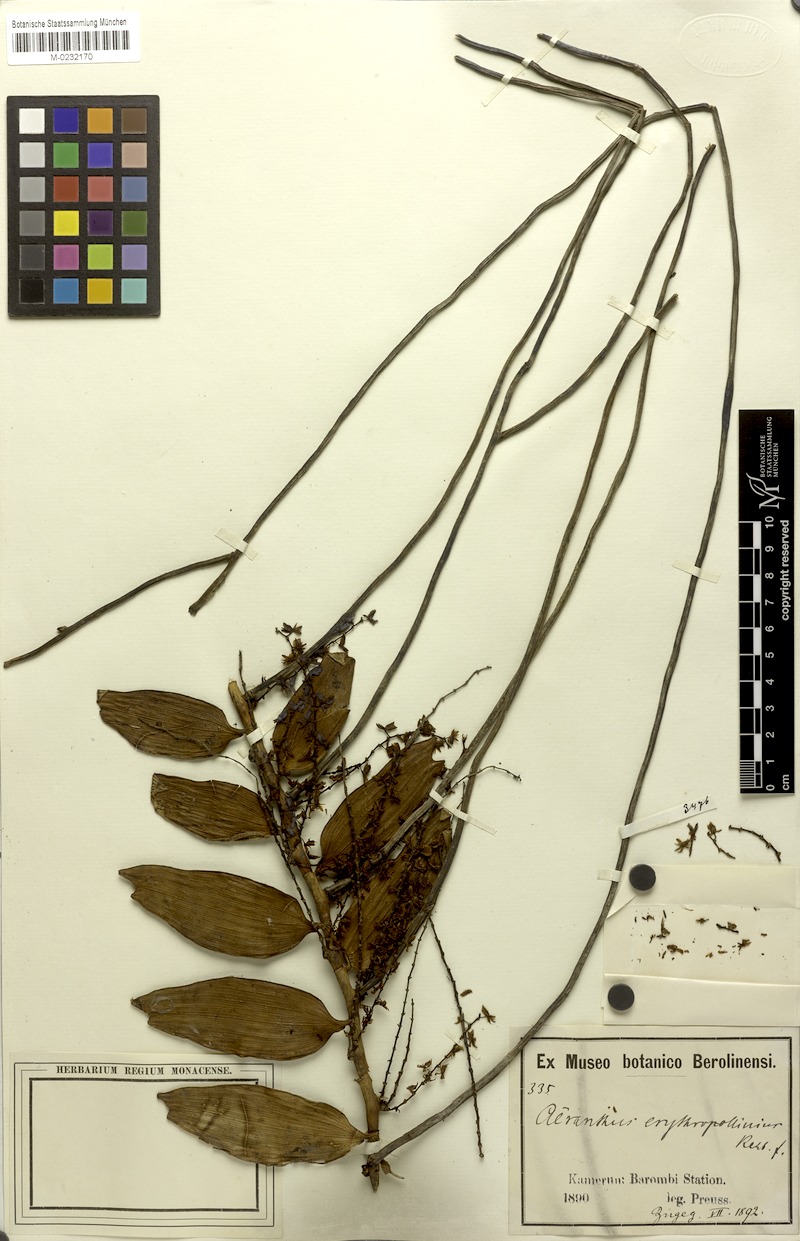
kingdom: Plantae
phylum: Tracheophyta
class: Liliopsida
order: Asparagales
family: Orchidaceae
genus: Rhipidoglossum
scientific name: Rhipidoglossum xanthopollinium
